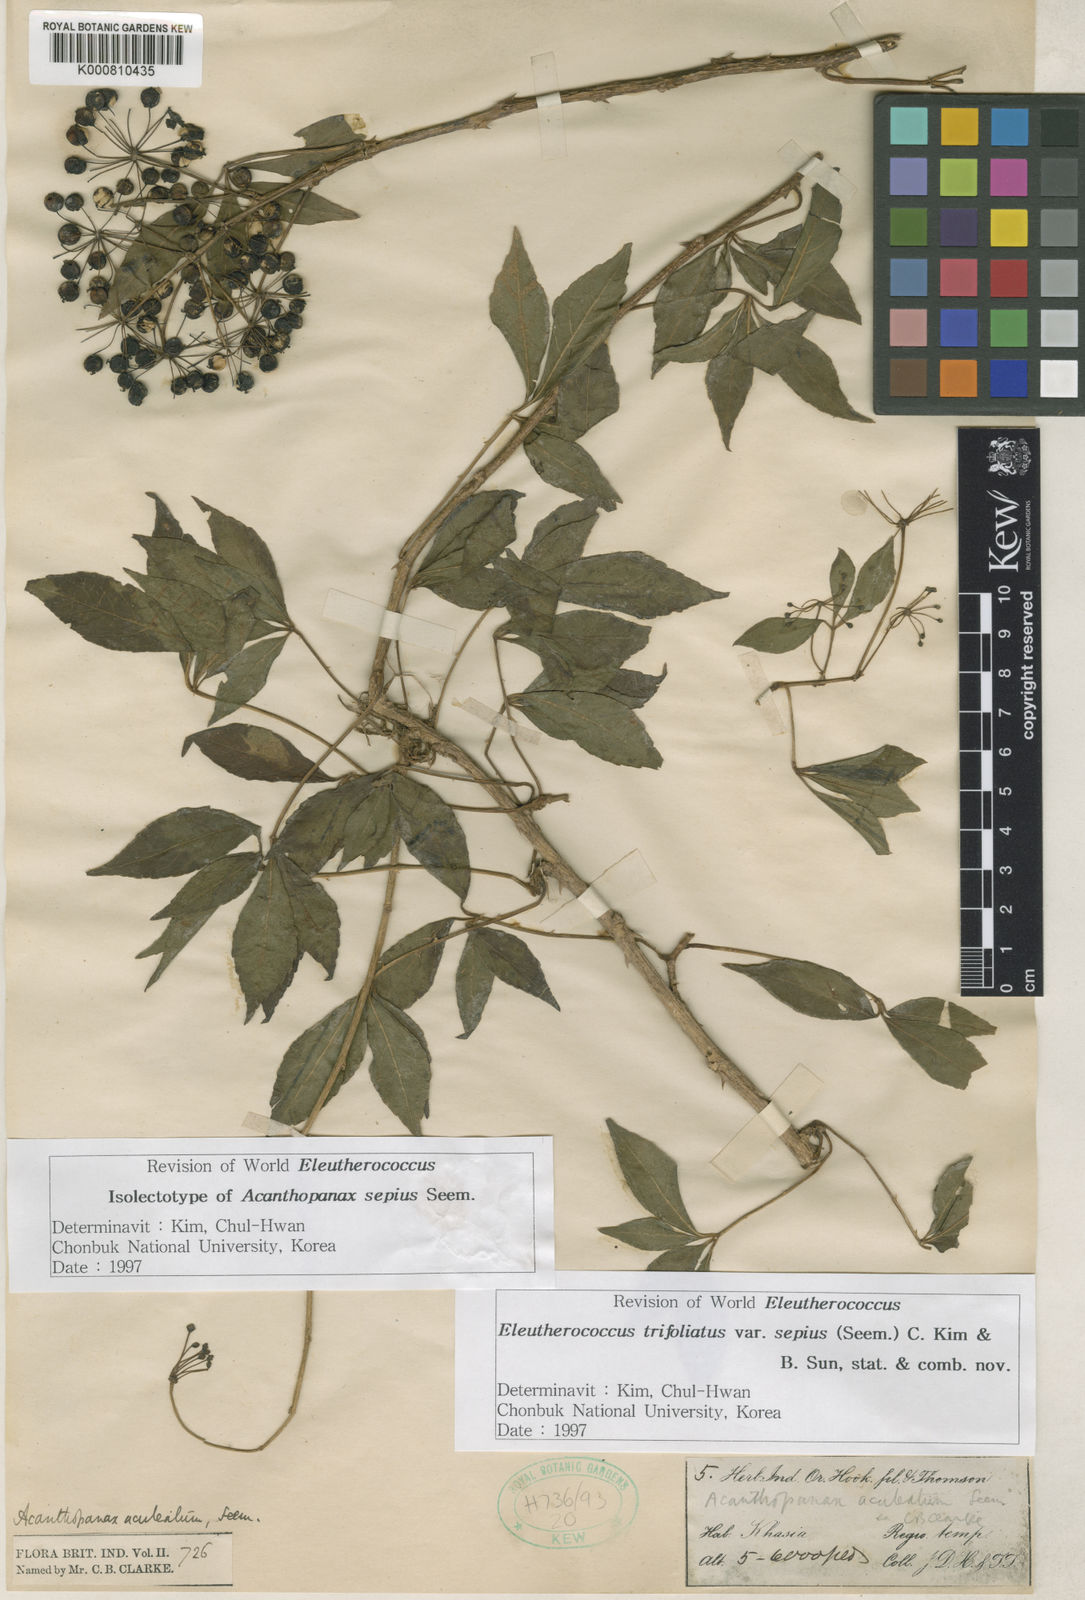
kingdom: Plantae
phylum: Tracheophyta
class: Magnoliopsida
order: Apiales
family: Araliaceae
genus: Eleutherococcus
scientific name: Eleutherococcus trifoliatus
